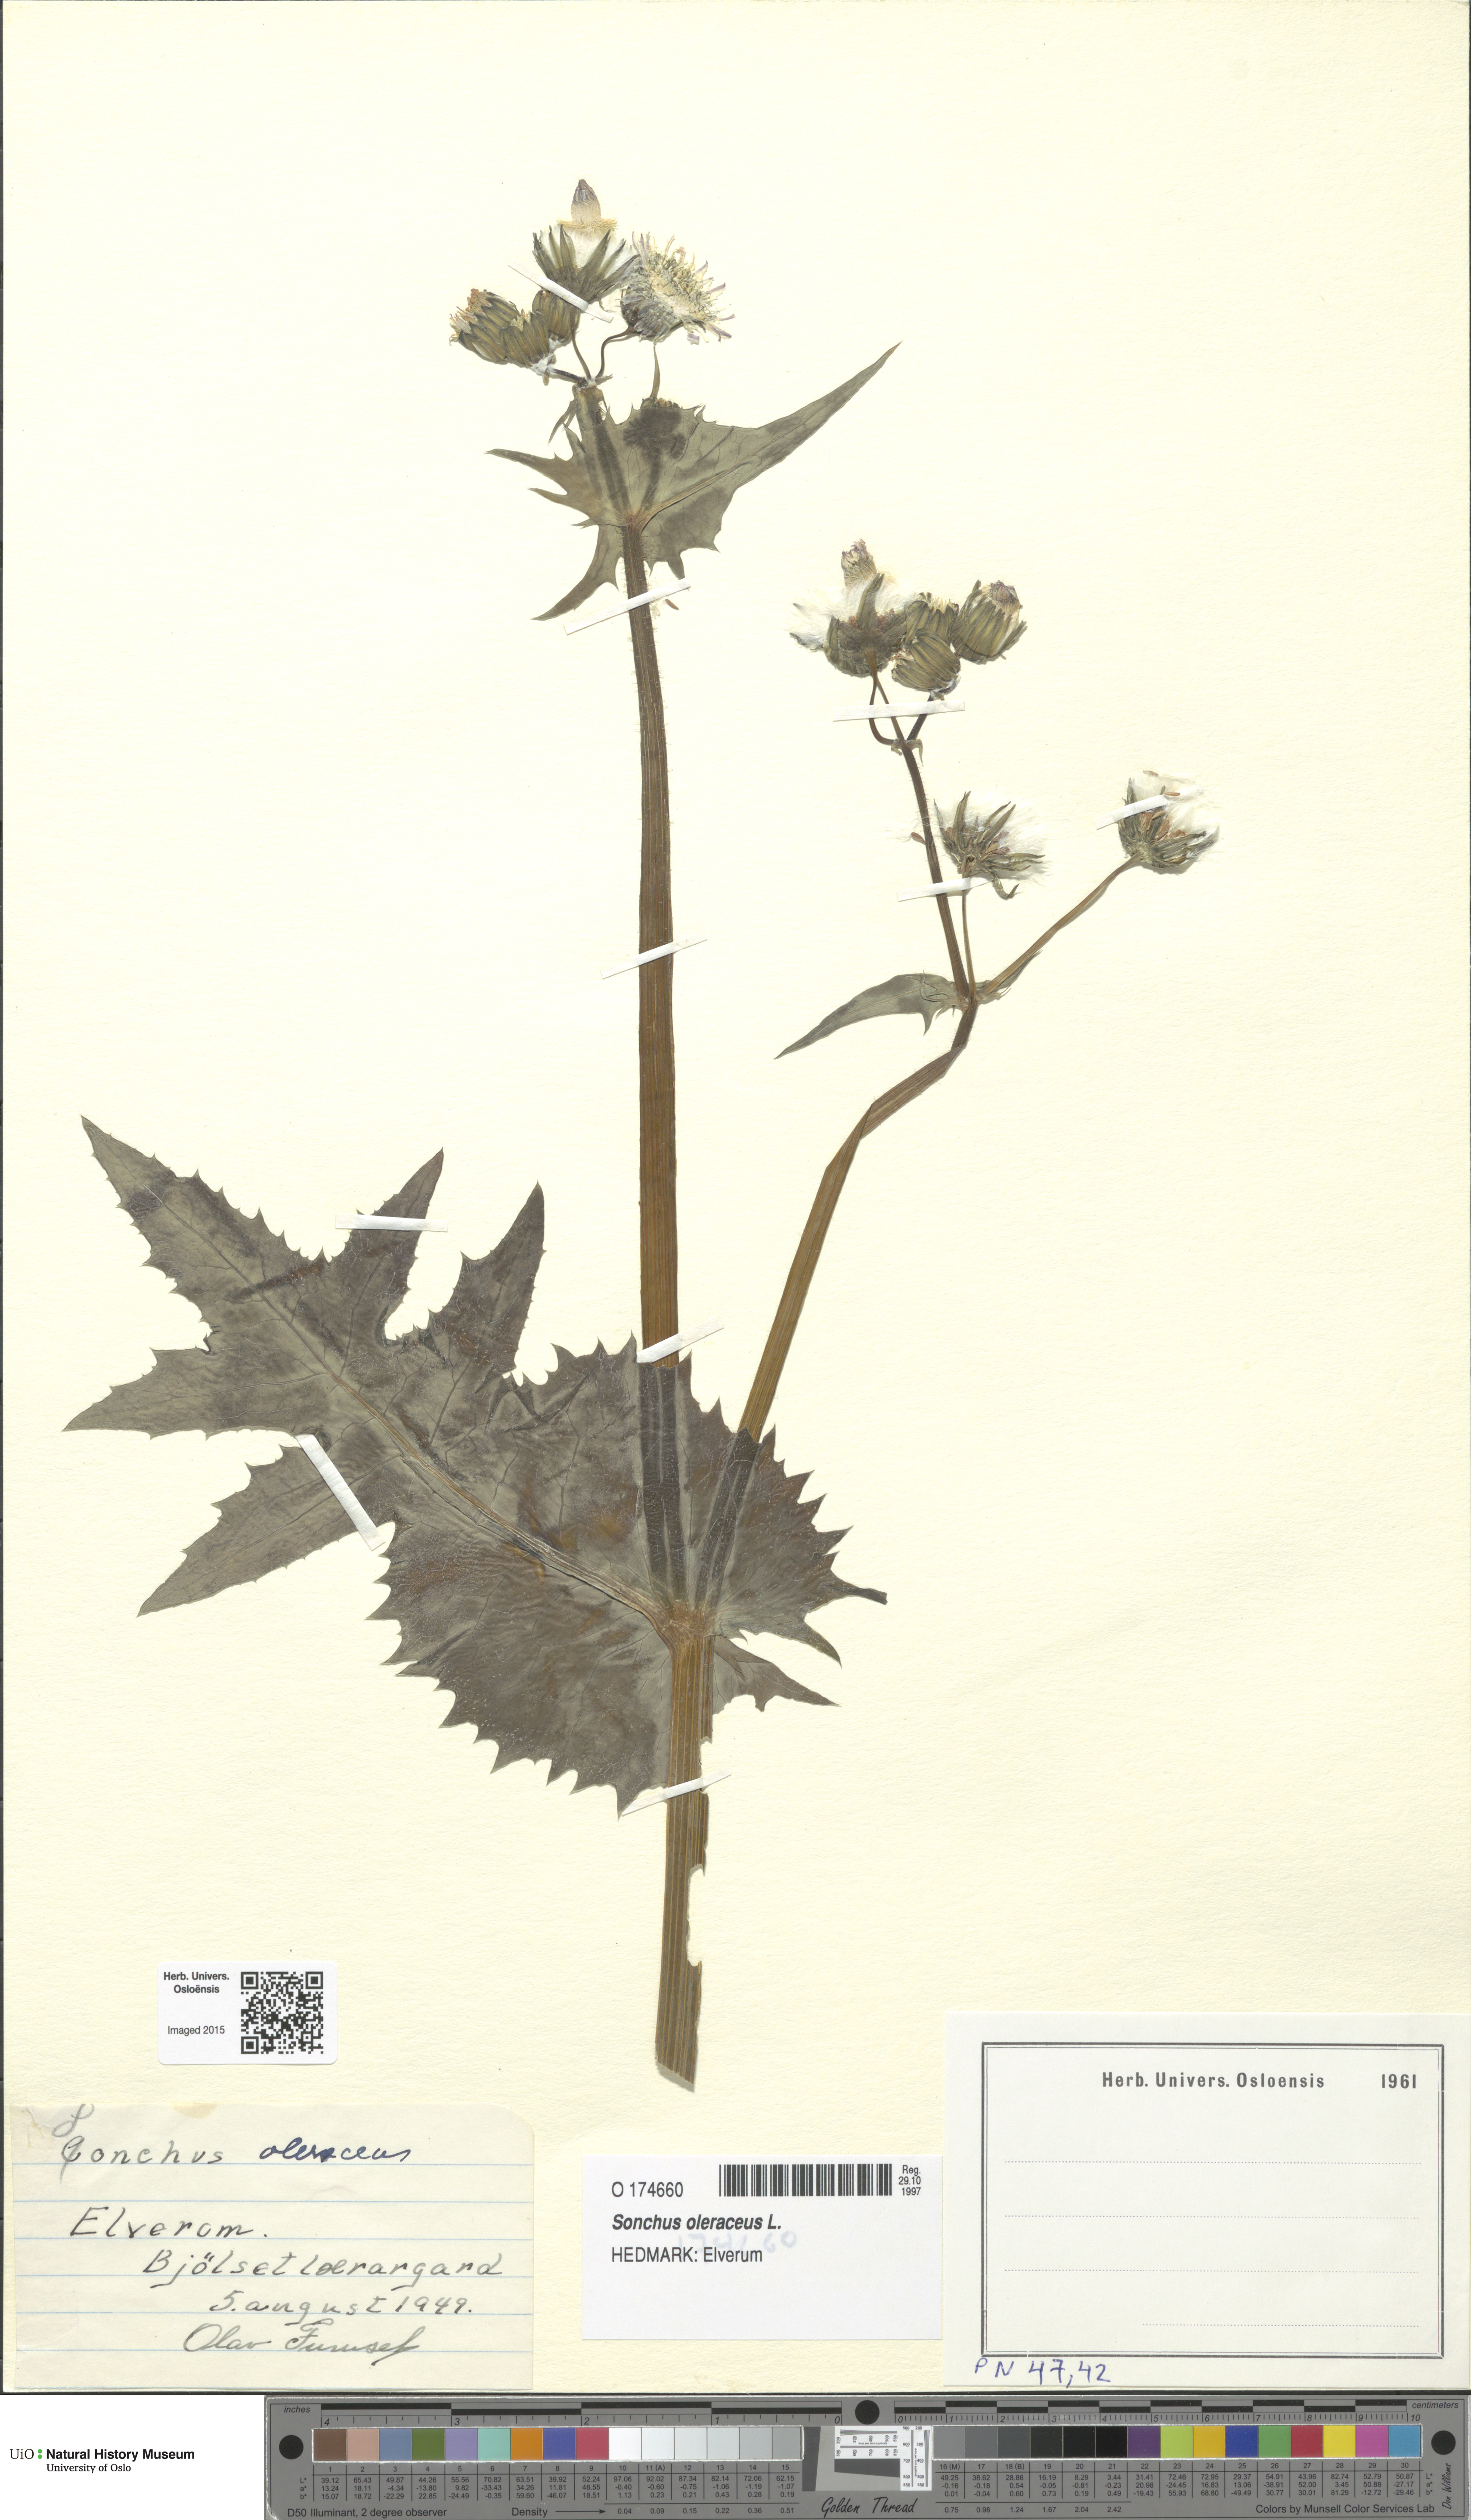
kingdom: Plantae
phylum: Tracheophyta
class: Magnoliopsida
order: Asterales
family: Asteraceae
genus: Sonchus
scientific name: Sonchus oleraceus
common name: Common sowthistle
